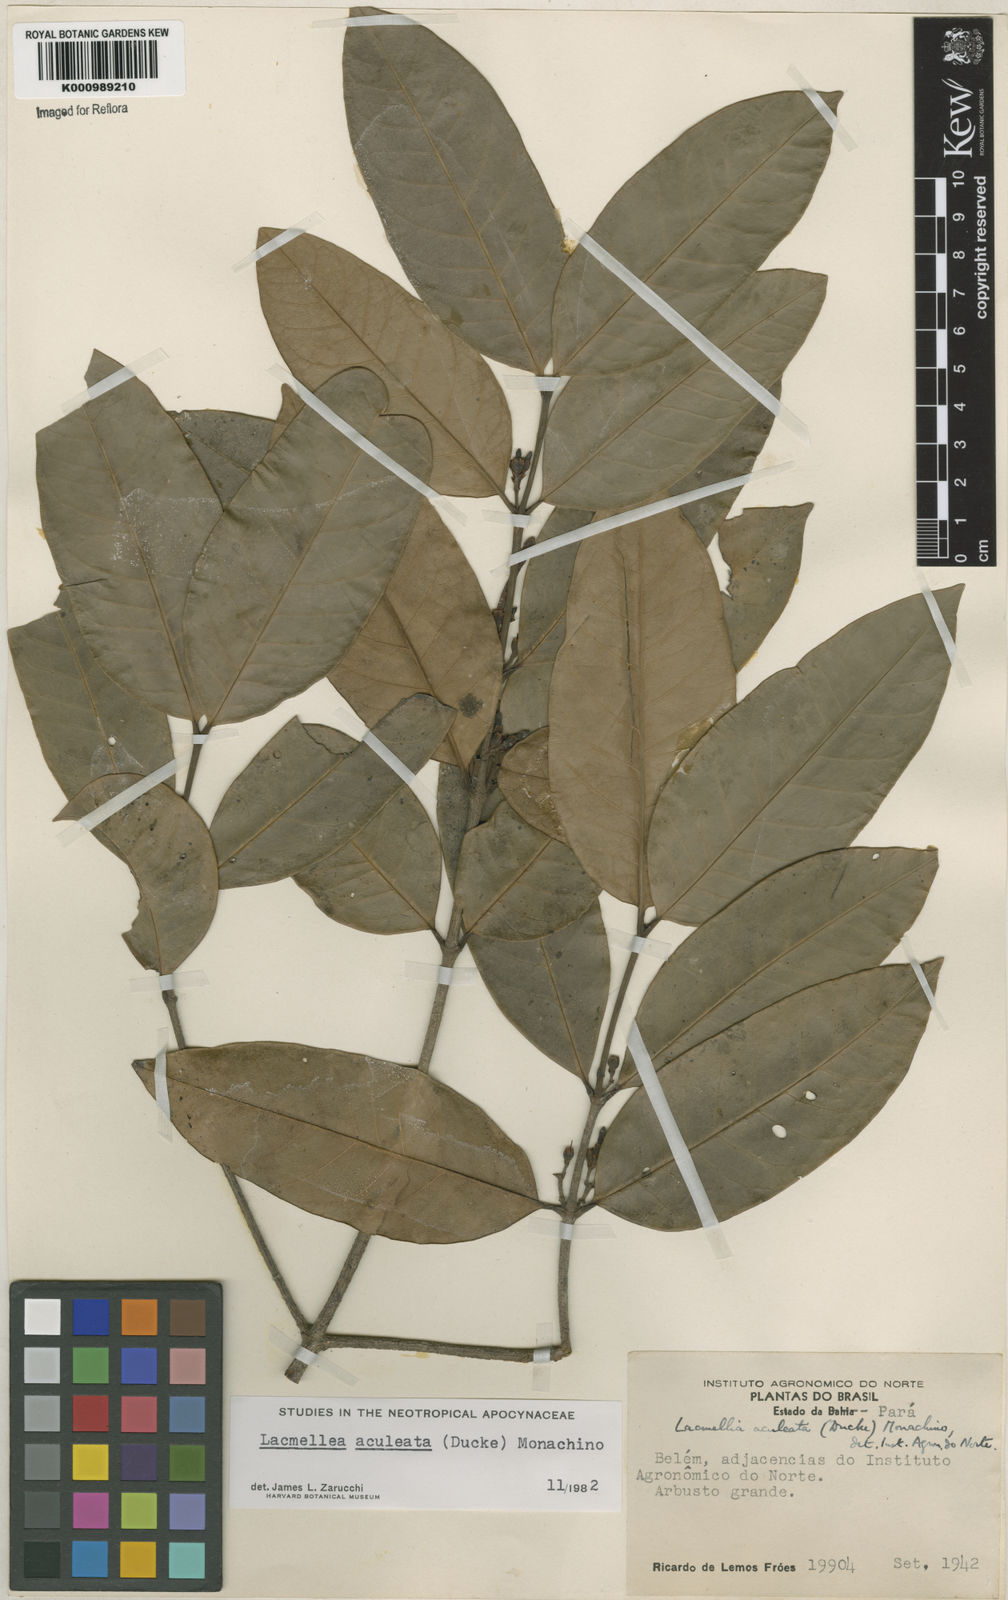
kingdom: Plantae
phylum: Tracheophyta
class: Magnoliopsida
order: Gentianales
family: Apocynaceae
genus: Lacmellea
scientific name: Lacmellea aculeata
